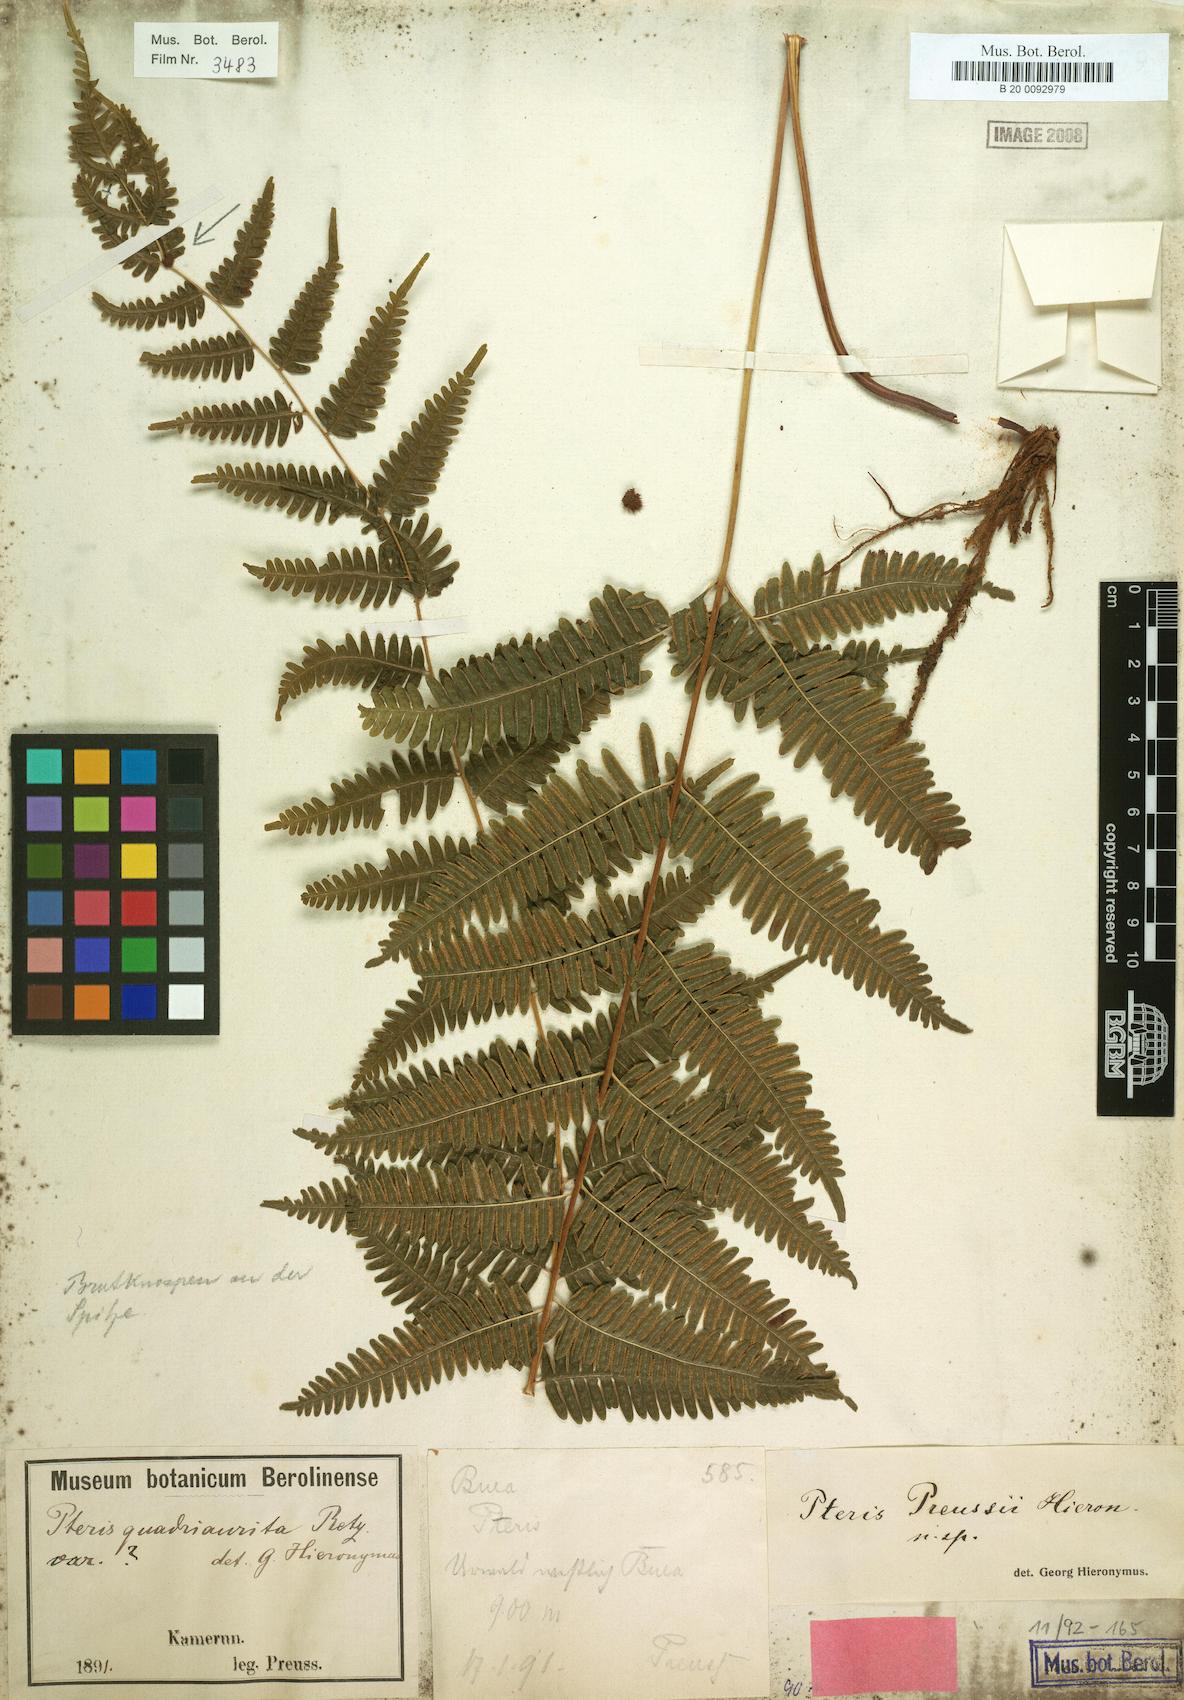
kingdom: Plantae
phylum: Tracheophyta
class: Polypodiopsida
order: Polypodiales
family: Pteridaceae
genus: Pteris
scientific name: Pteris preussii
